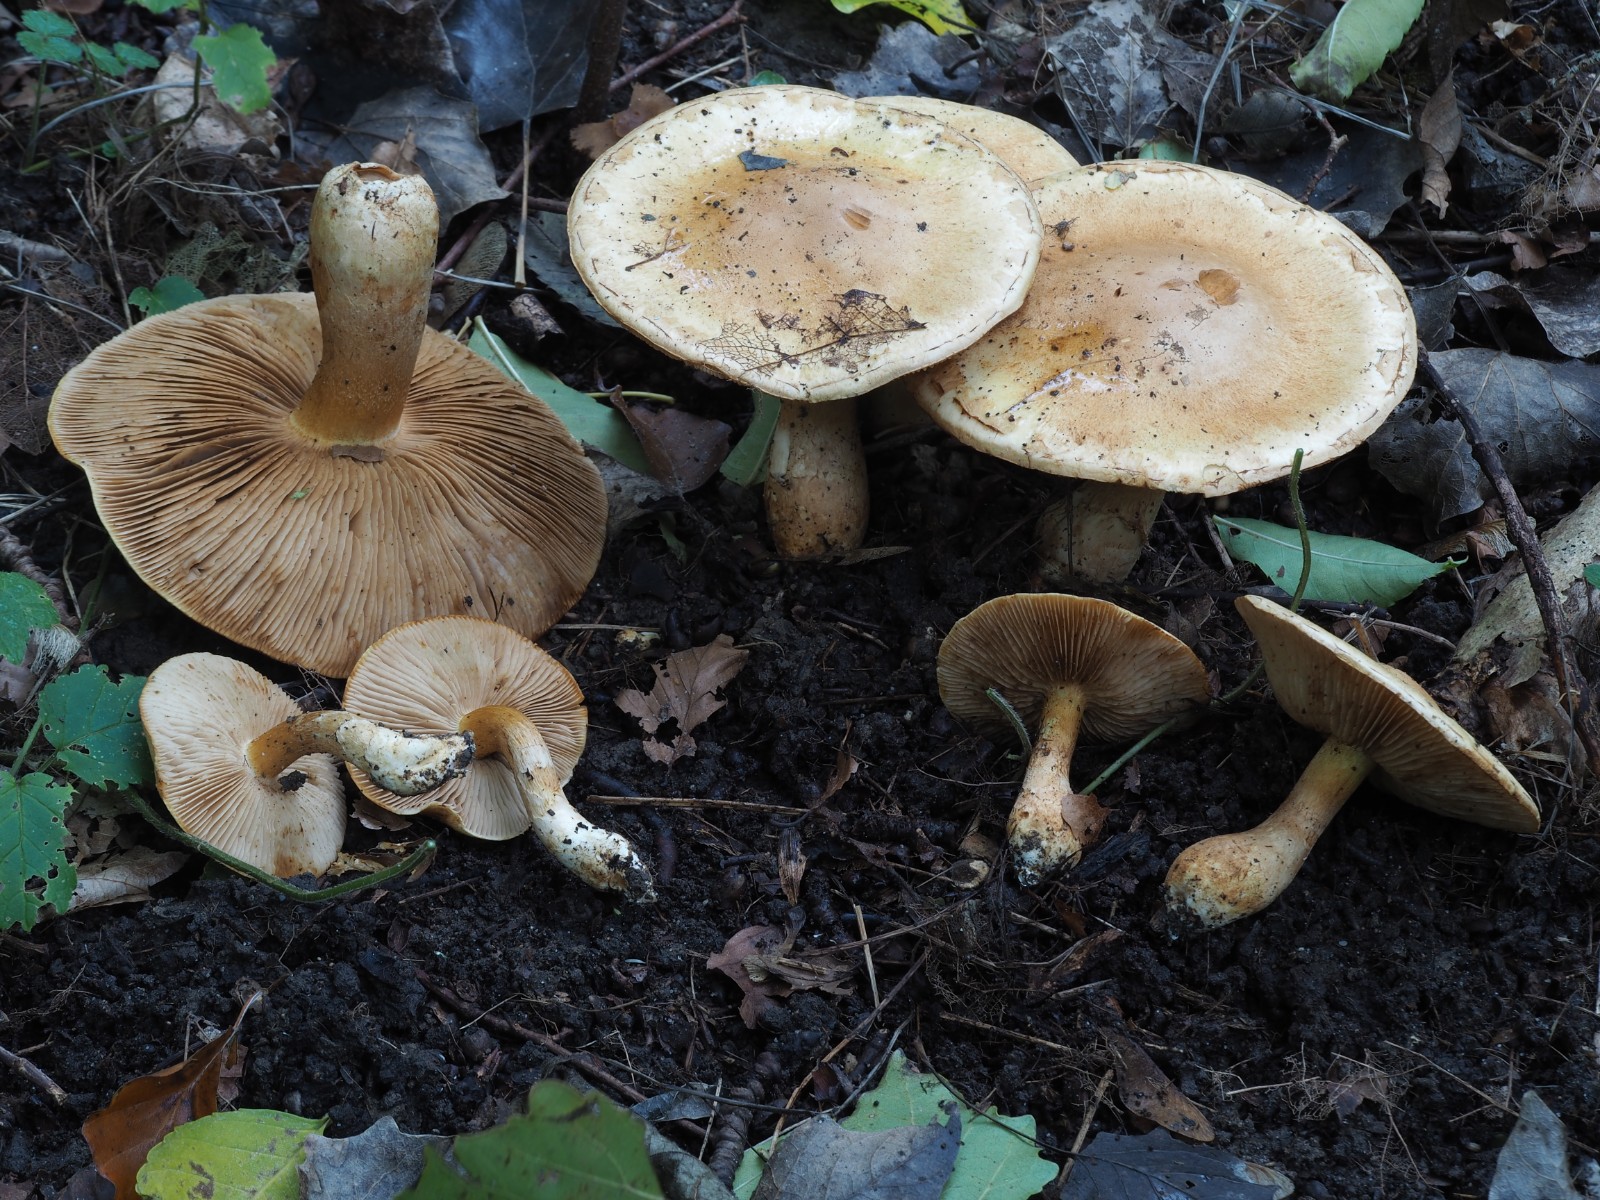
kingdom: Fungi
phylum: Basidiomycota
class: Agaricomycetes
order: Agaricales
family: Cortinariaceae
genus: Phlegmacium
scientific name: Phlegmacium argutum
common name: hvidlig slørhat
